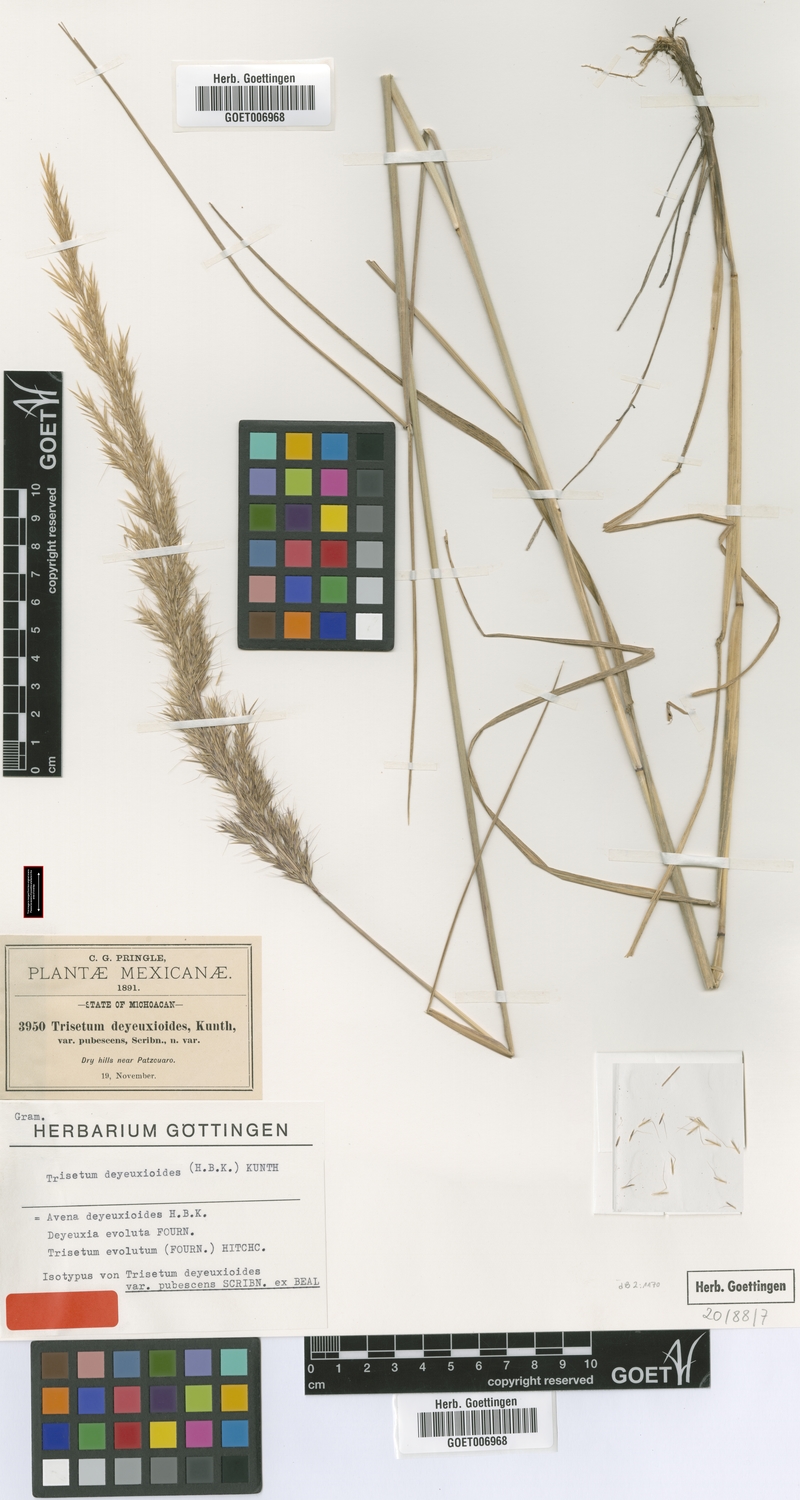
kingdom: Plantae
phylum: Tracheophyta
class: Liliopsida
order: Poales
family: Poaceae
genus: Peyritschia
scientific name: Peyritschia deyeuxioides
